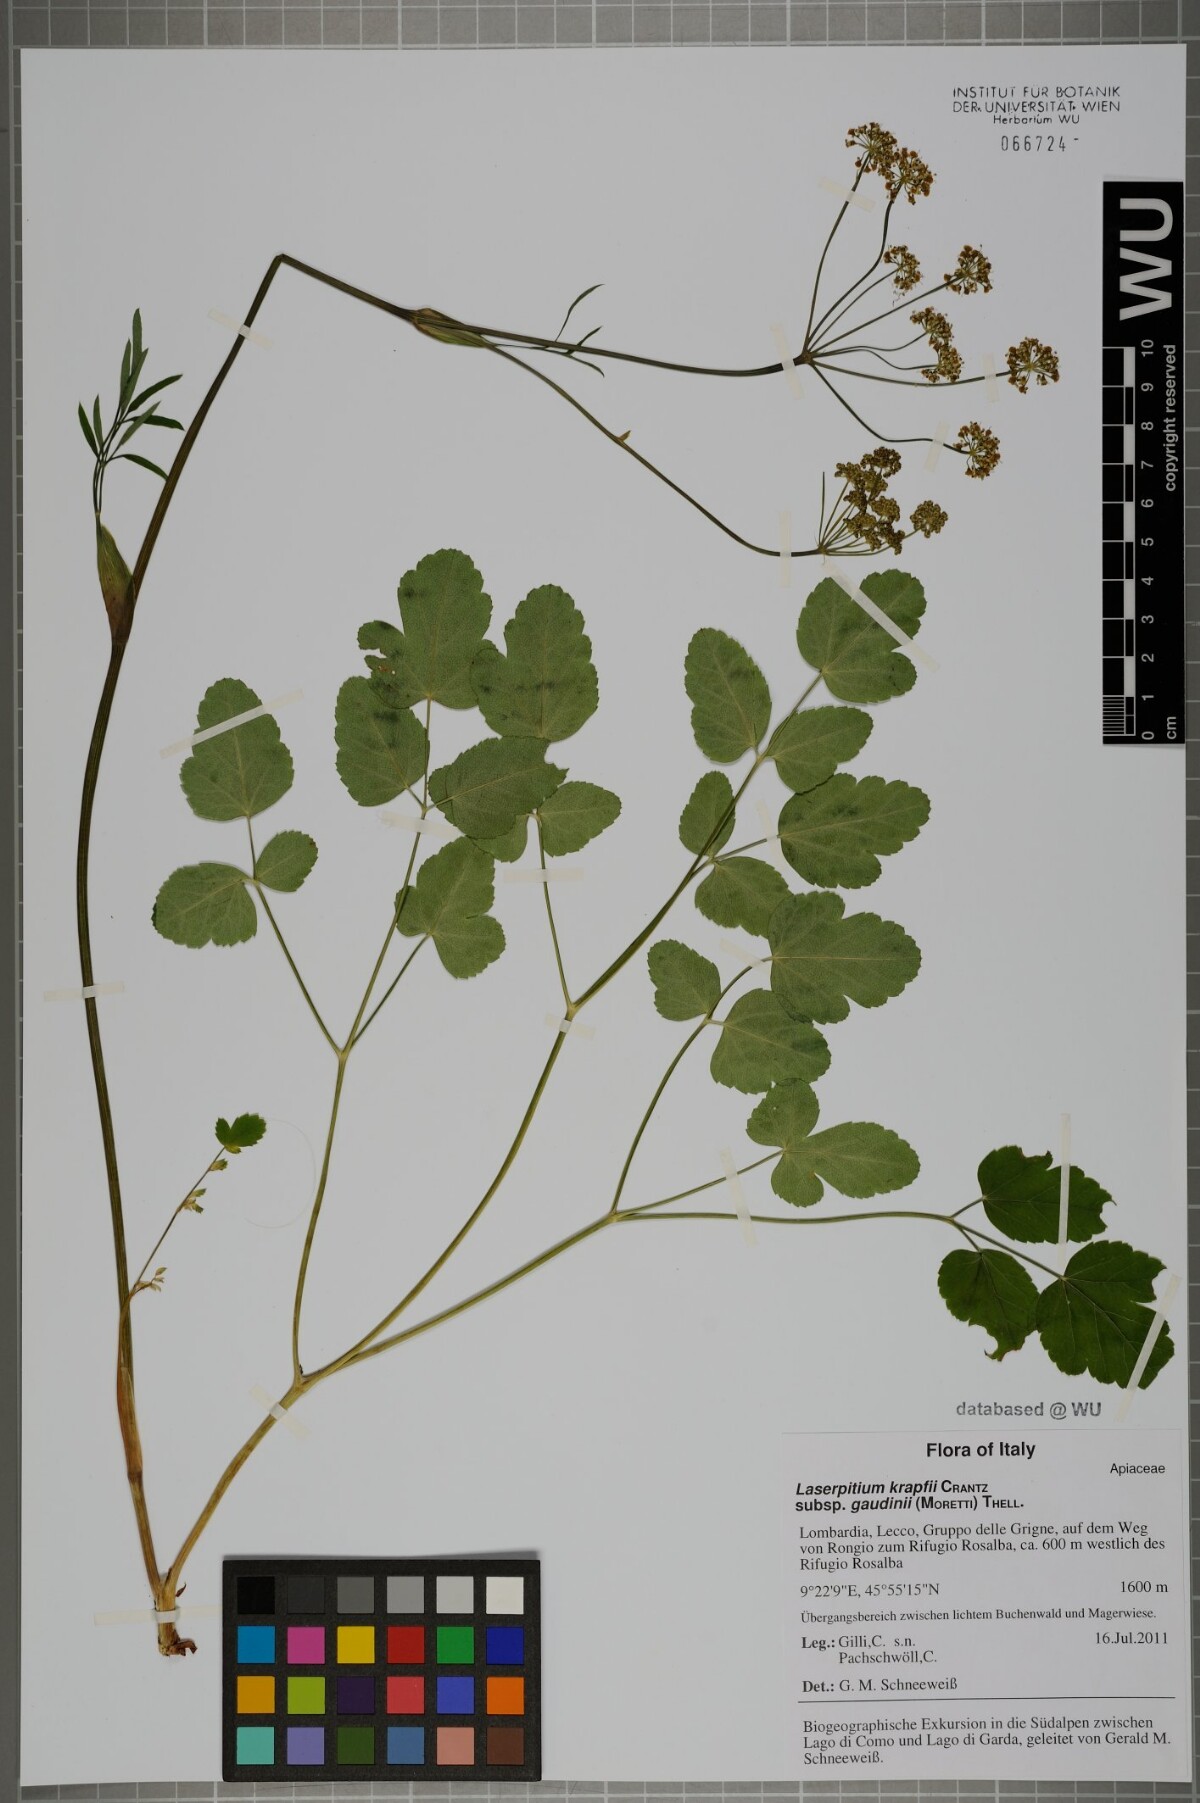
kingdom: Plantae
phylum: Tracheophyta
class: Magnoliopsida
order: Apiales
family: Apiaceae
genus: Laserpitium
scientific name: Laserpitium krapffii
